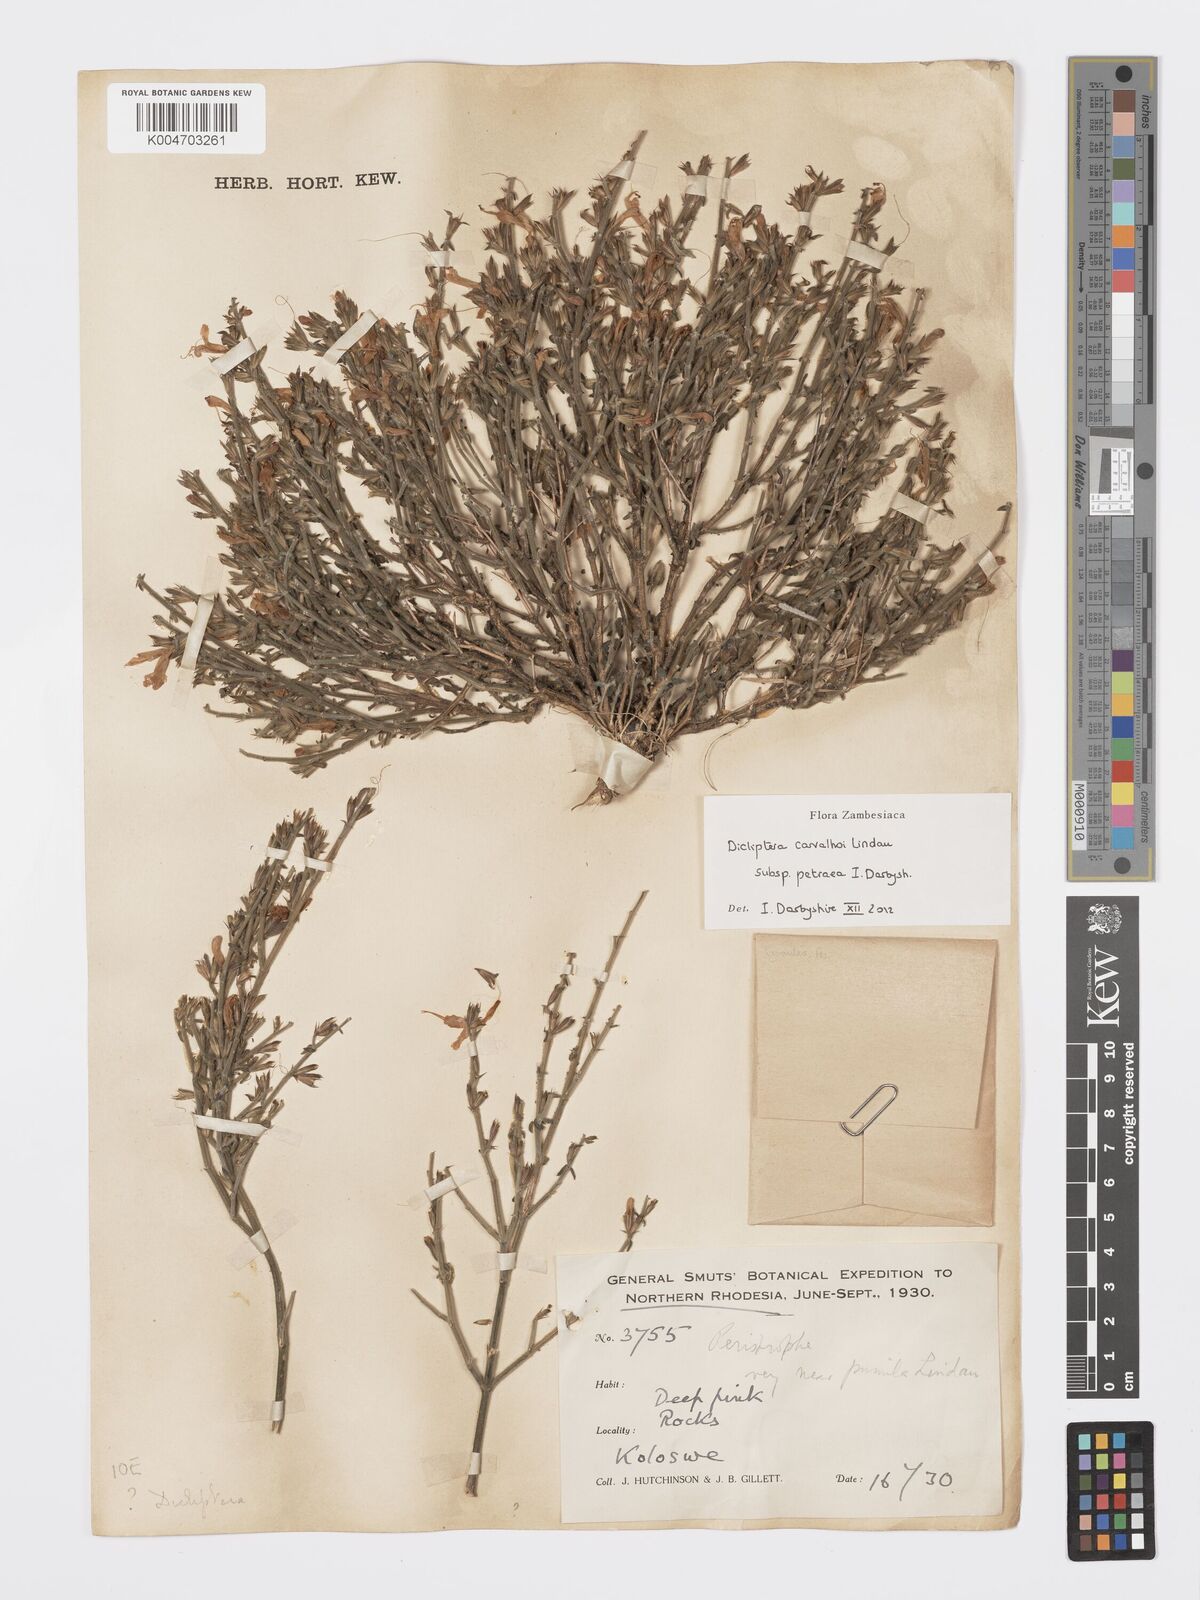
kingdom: Plantae
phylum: Tracheophyta
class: Magnoliopsida
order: Lamiales
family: Acanthaceae
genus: Dicliptera
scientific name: Dicliptera carvalhoi
